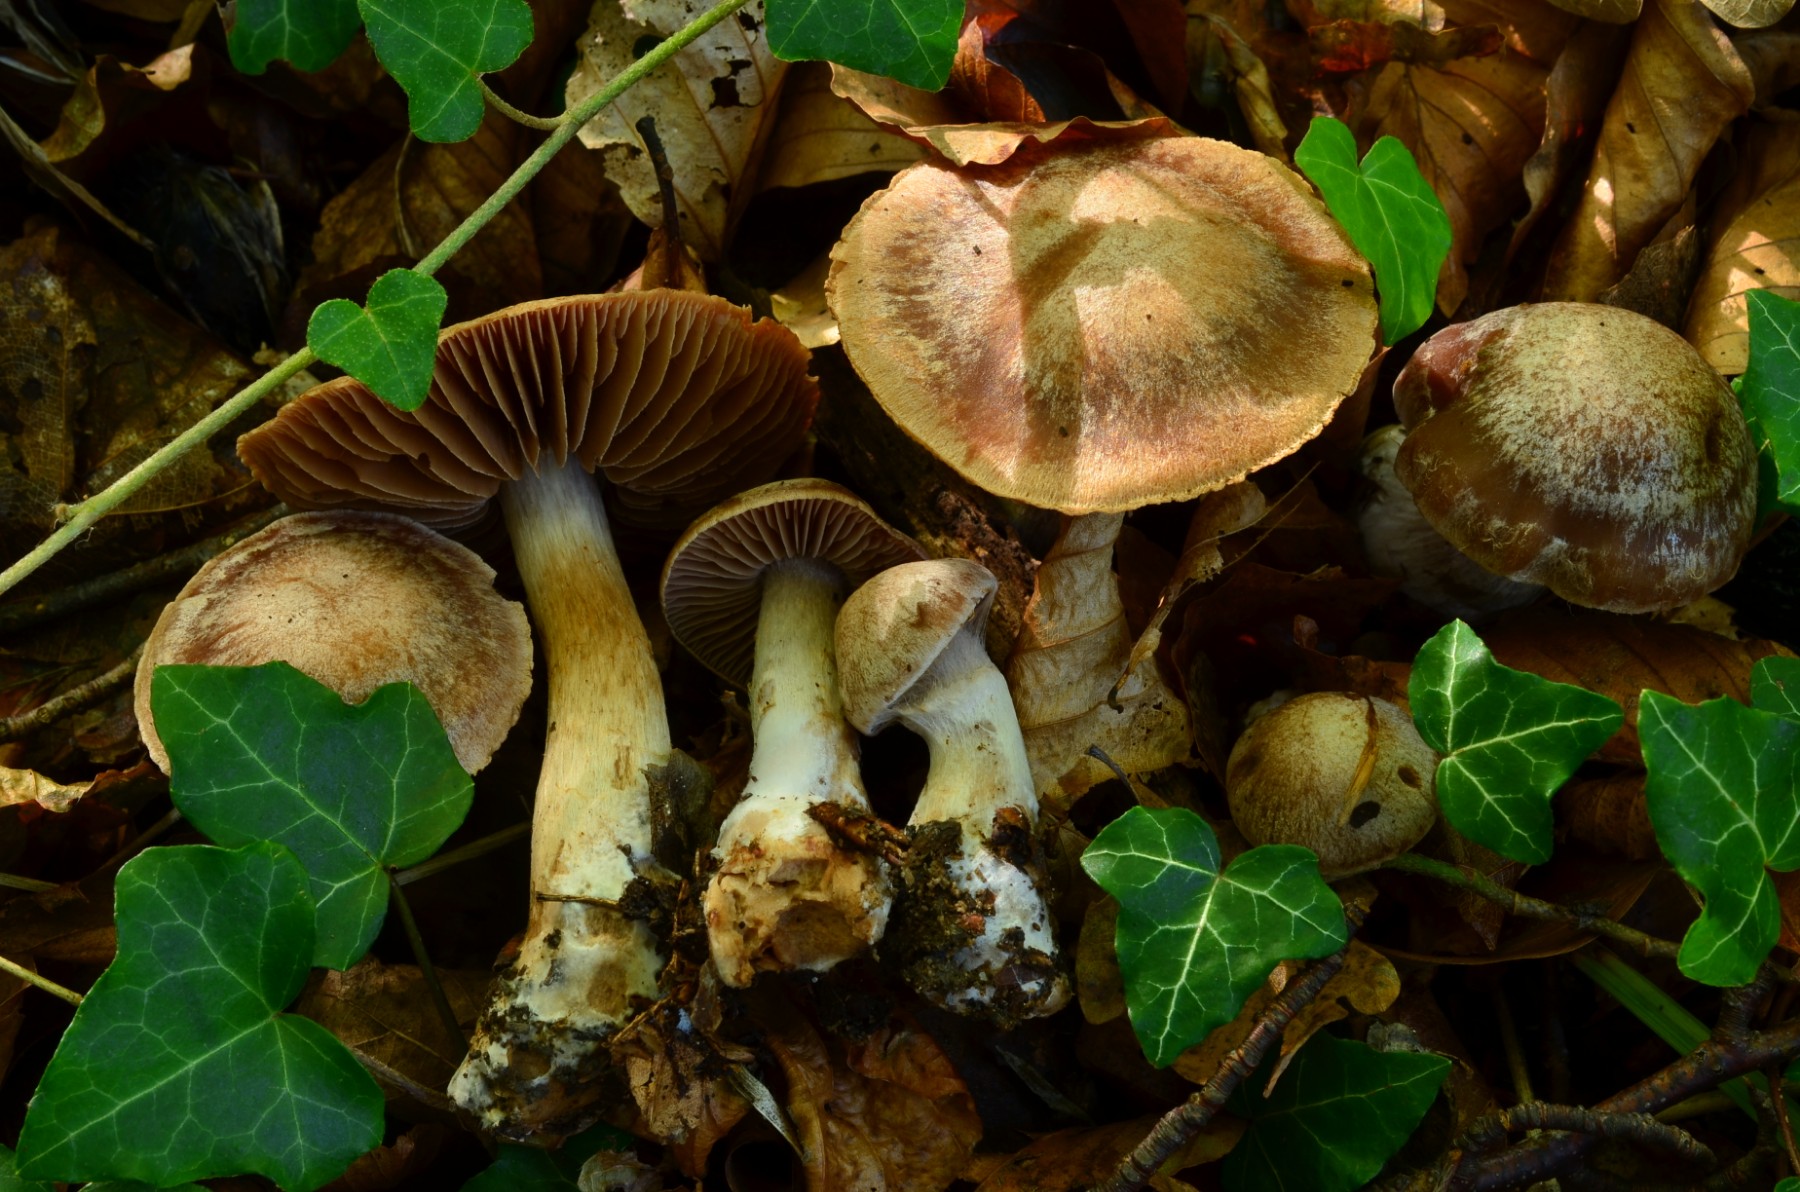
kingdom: Fungi
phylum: Basidiomycota
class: Agaricomycetes
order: Agaricales
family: Cortinariaceae
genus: Cortinarius
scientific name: Cortinarius testaceomicaceus
